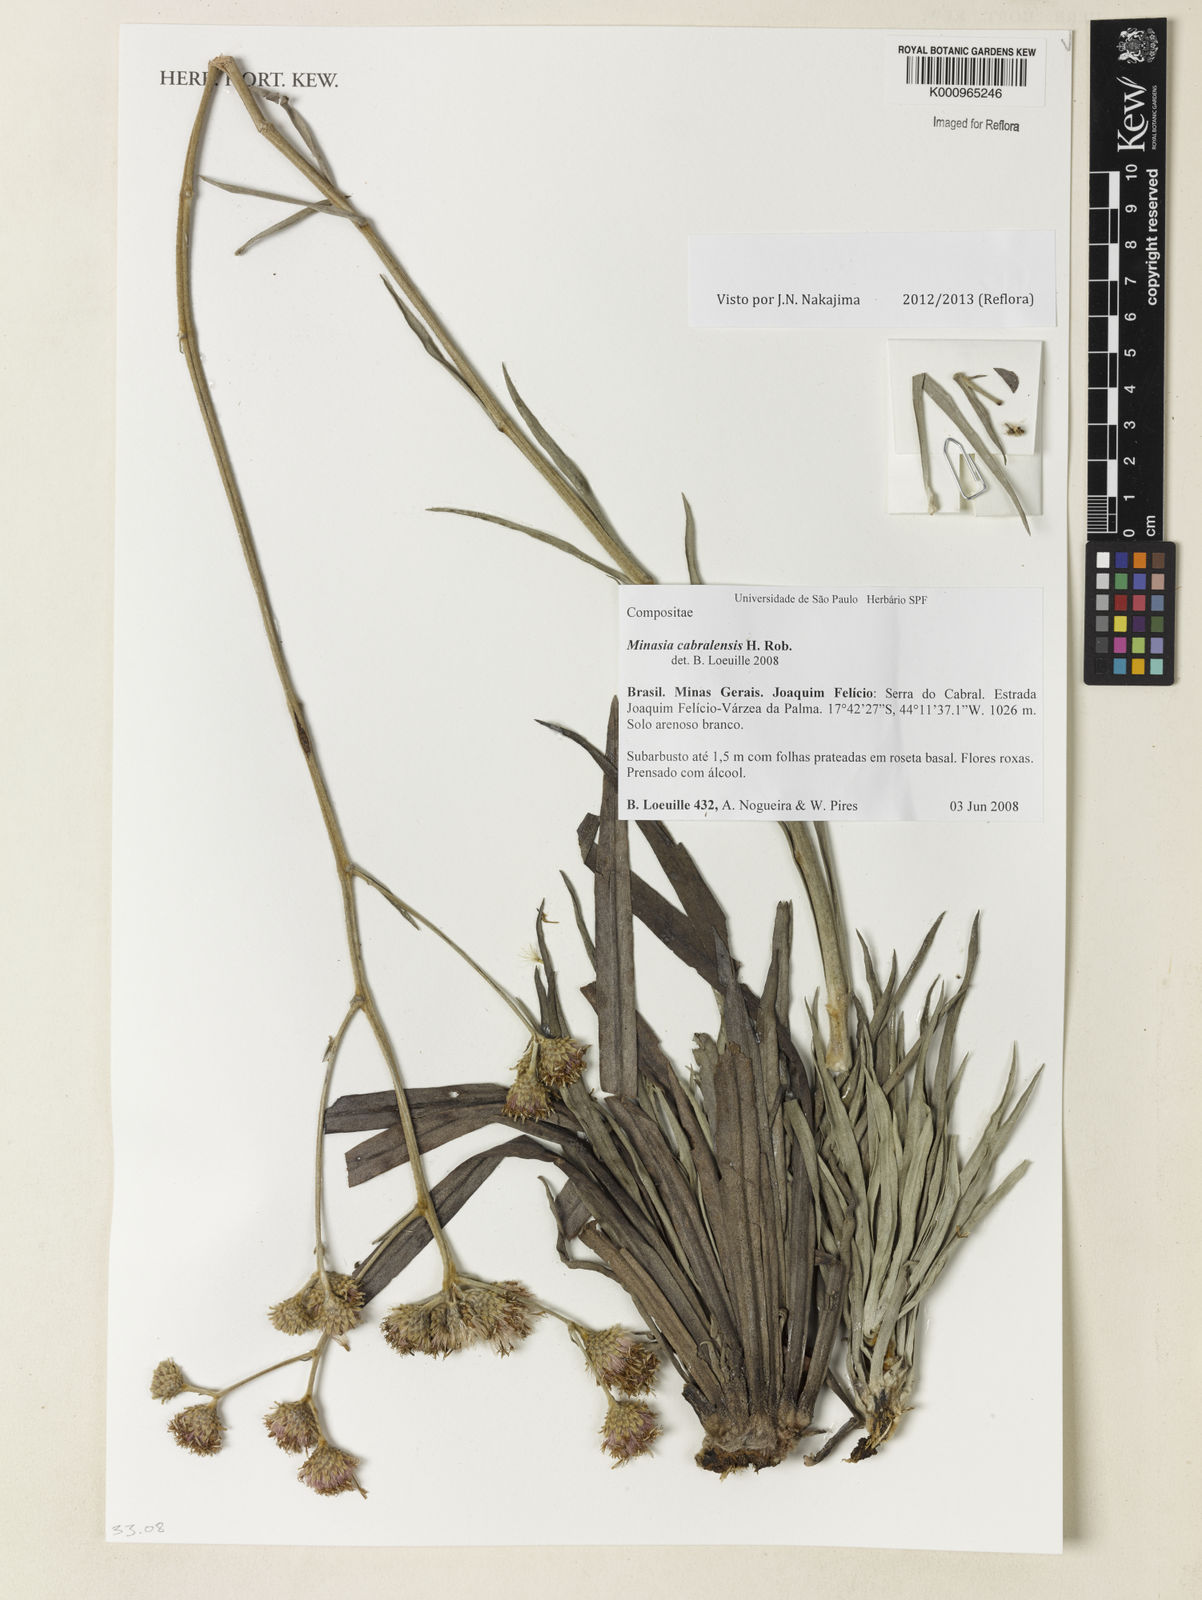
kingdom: Plantae
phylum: Tracheophyta
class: Magnoliopsida
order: Asterales
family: Asteraceae
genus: Minasia
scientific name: Minasia cabralensis
